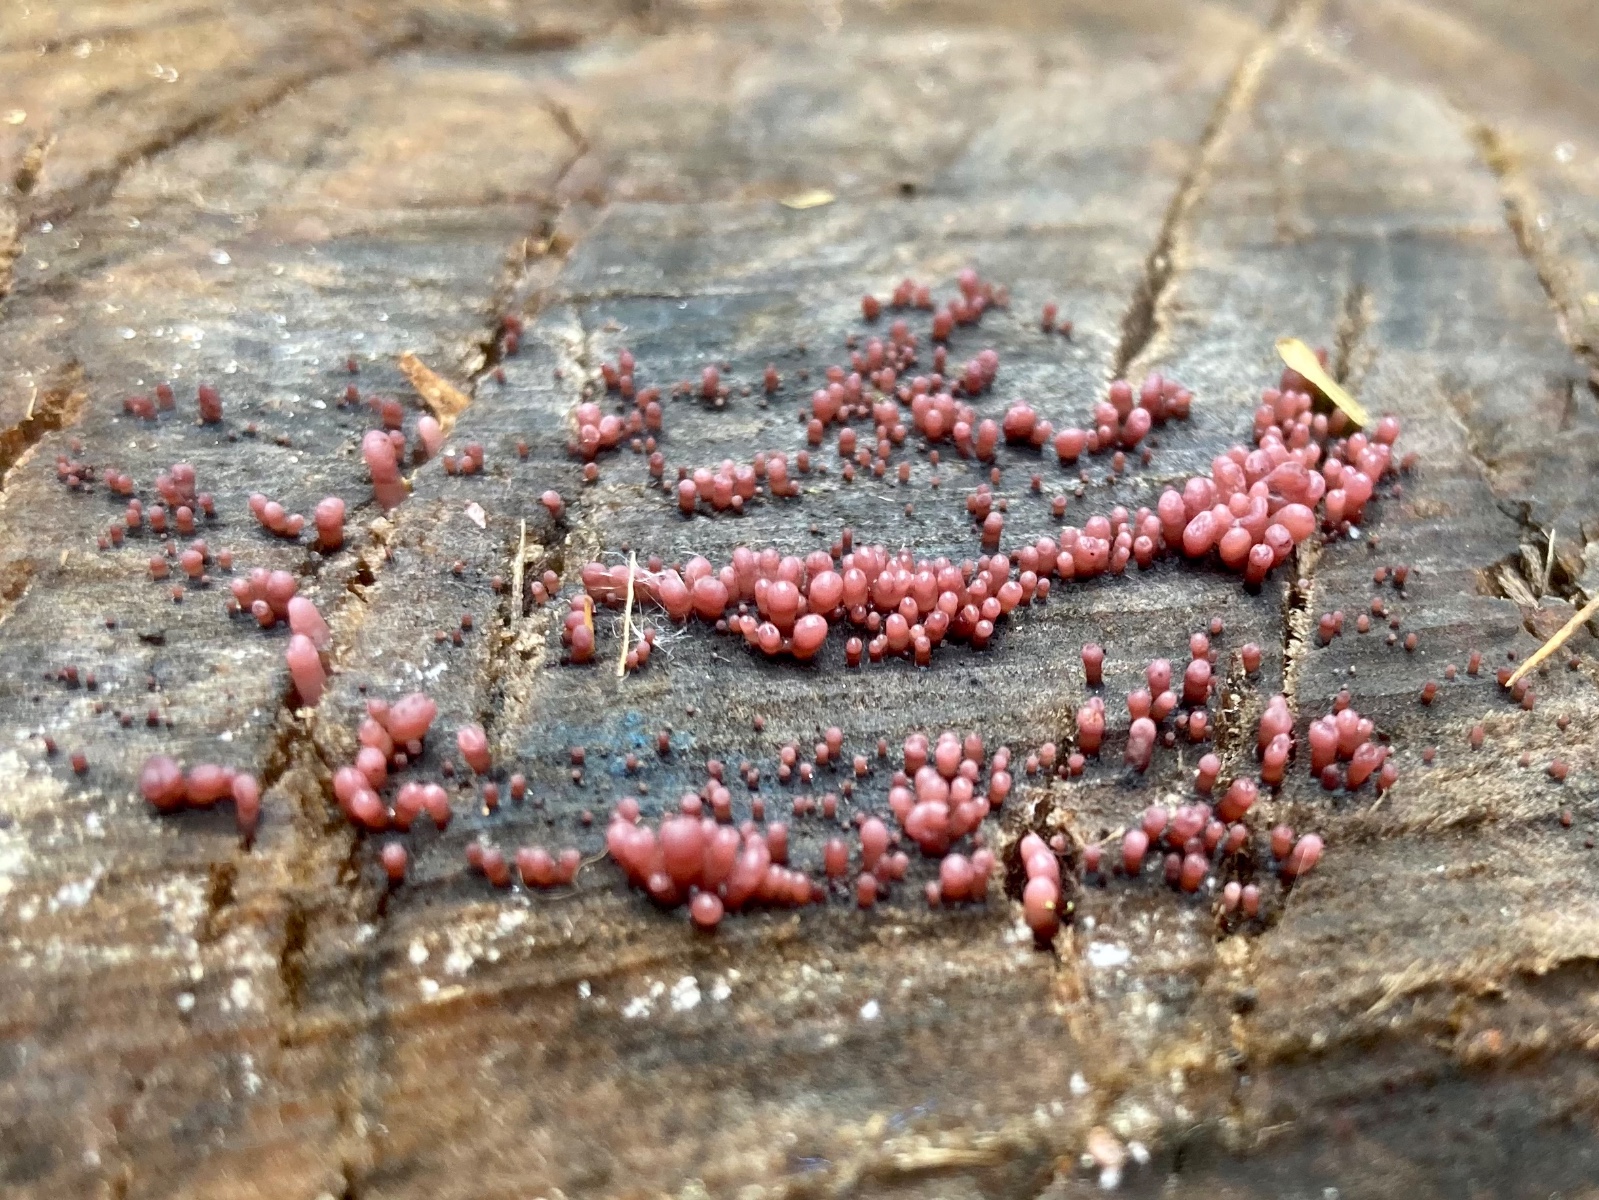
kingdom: Fungi
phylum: Ascomycota
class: Leotiomycetes
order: Helotiales
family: Gelatinodiscaceae
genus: Ascocoryne
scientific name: Ascocoryne sarcoides
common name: rødlilla sejskive
